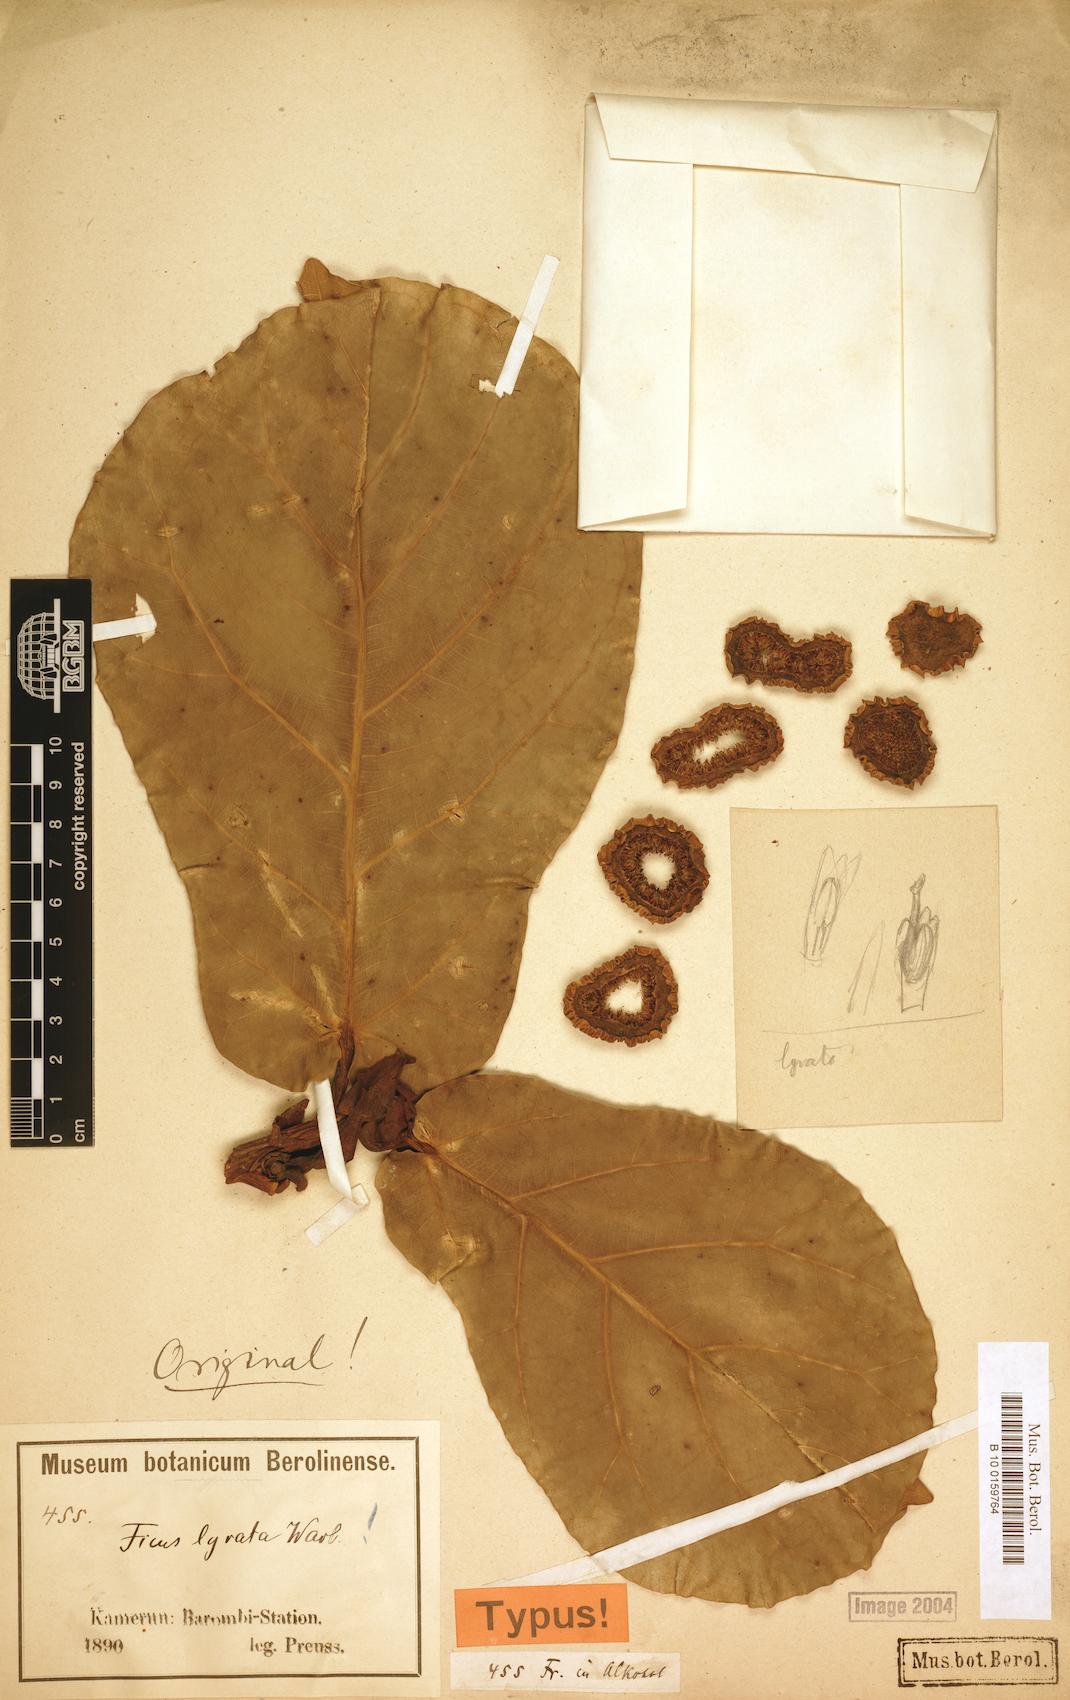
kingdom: Plantae
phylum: Tracheophyta
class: Magnoliopsida
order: Rosales
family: Moraceae
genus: Ficus
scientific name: Ficus lyrata
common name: Fiddle-leaf fig
